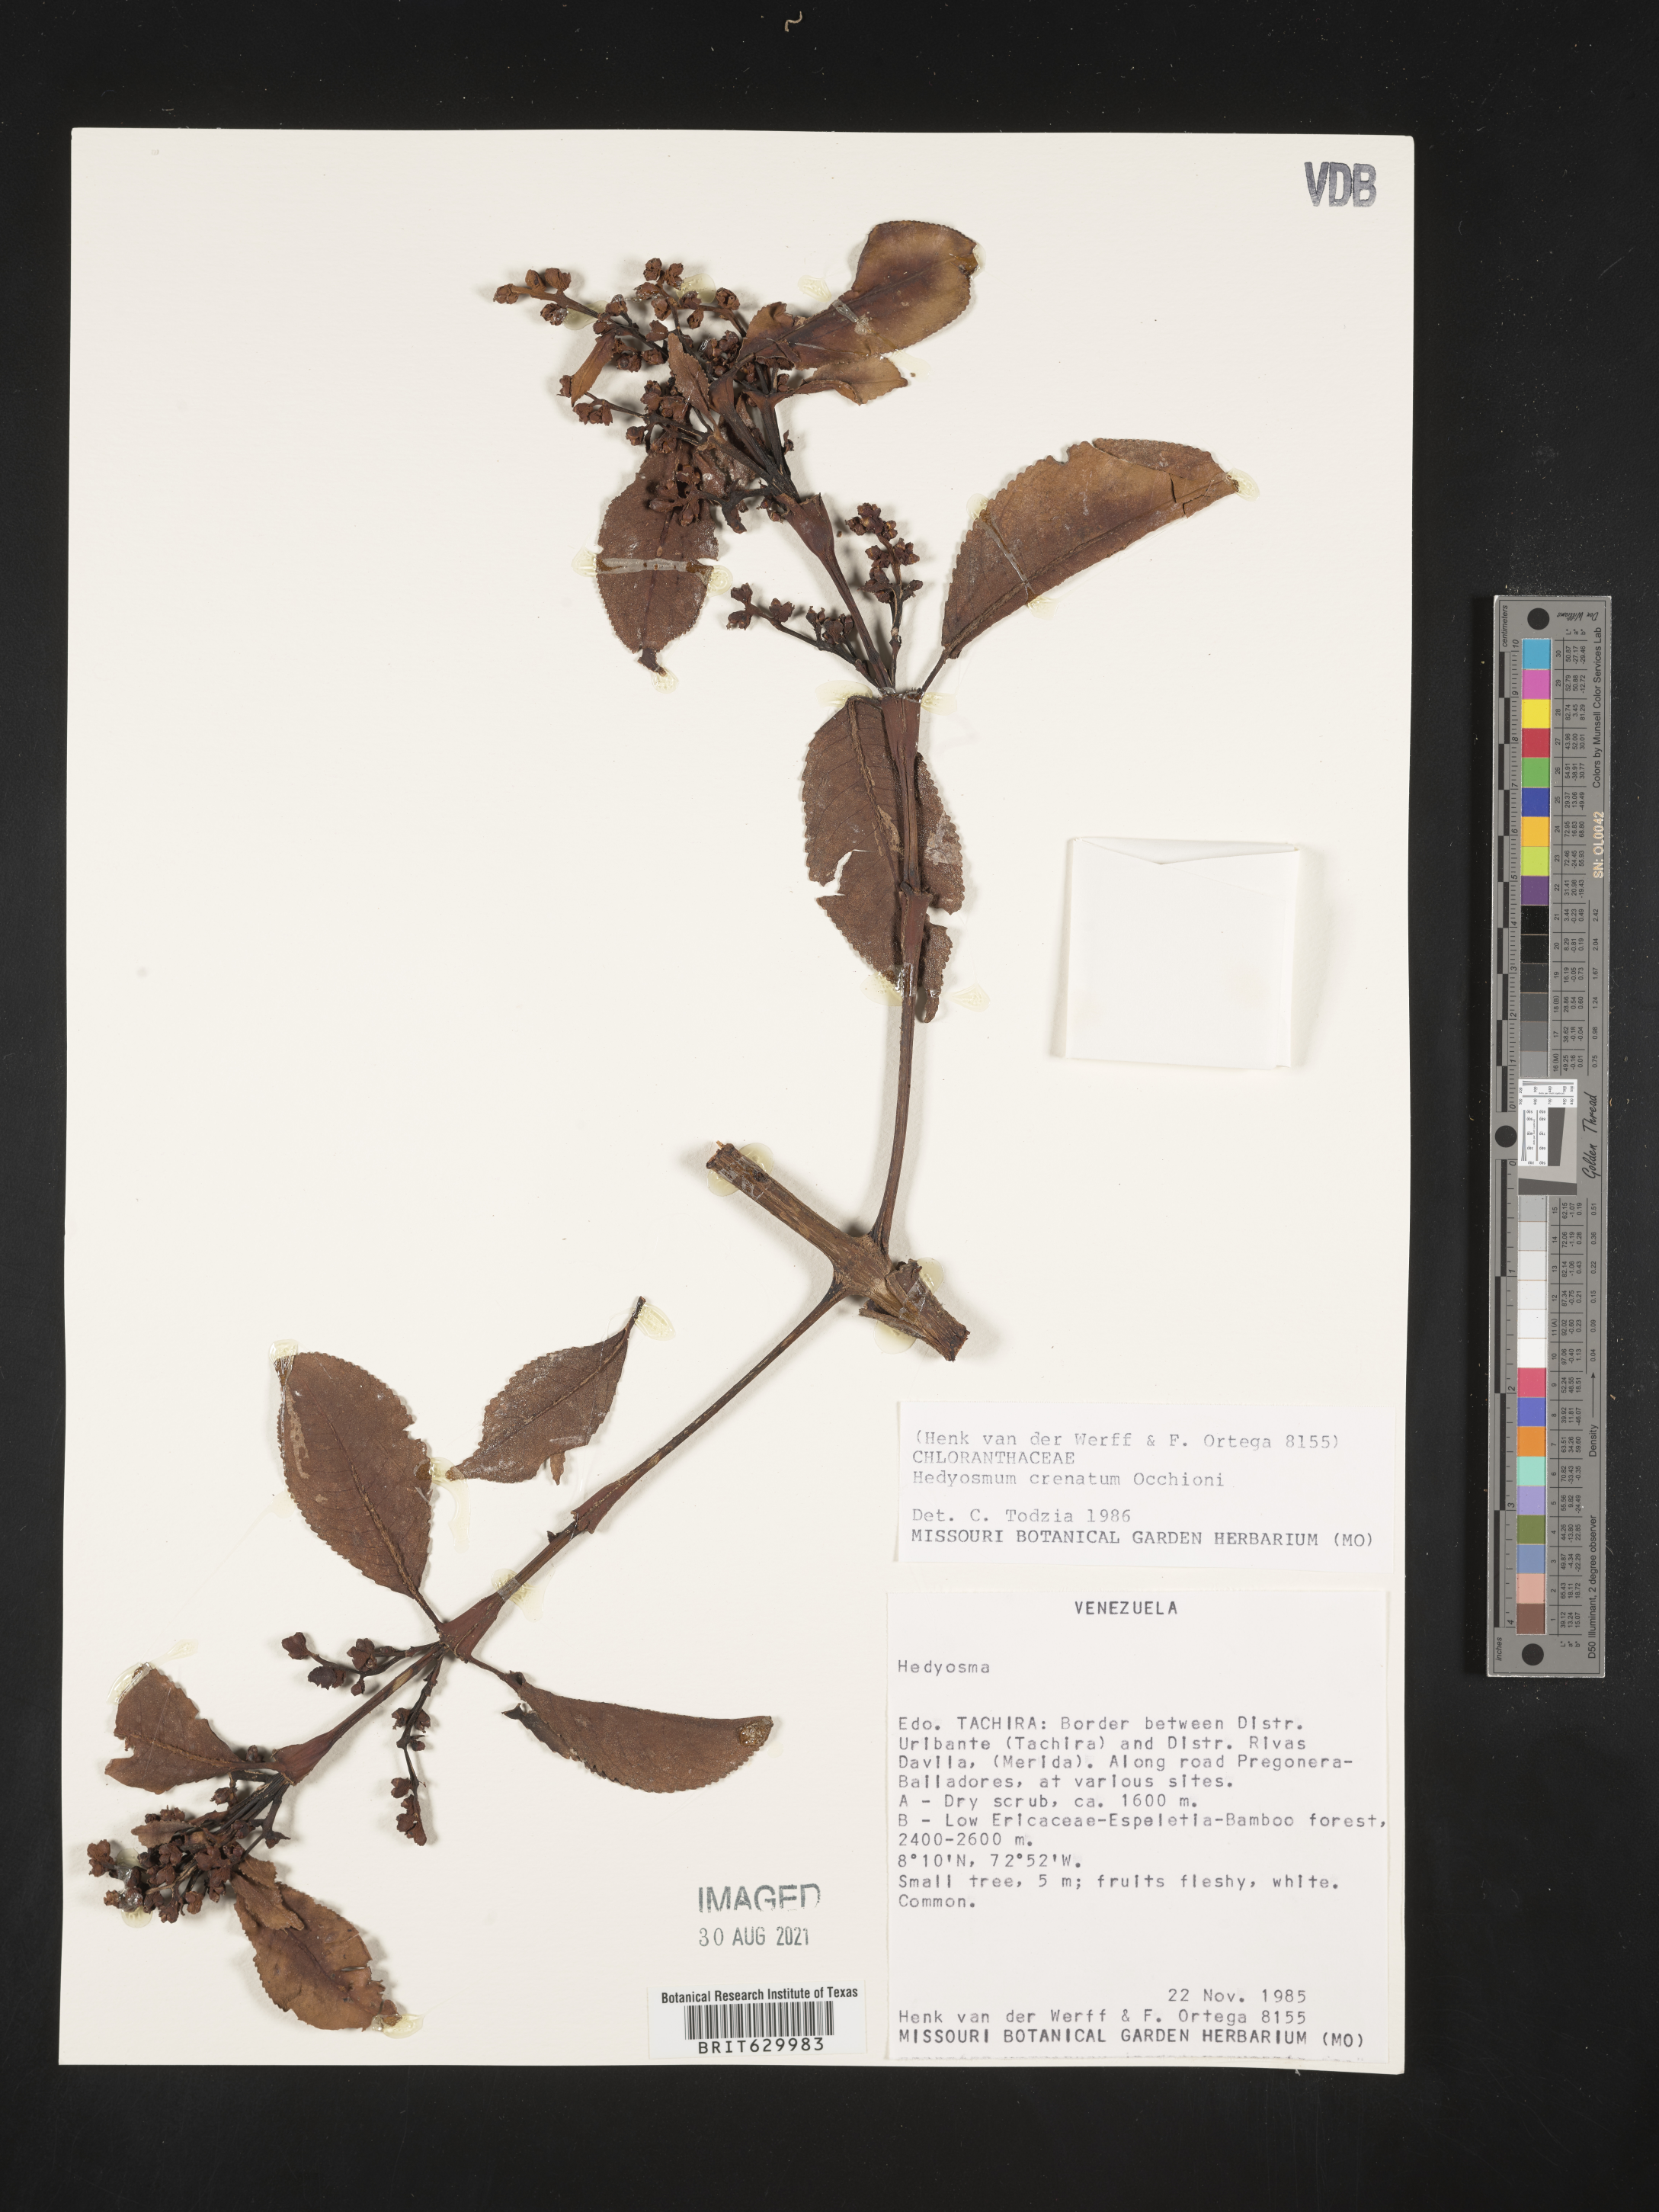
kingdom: Plantae
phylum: Tracheophyta
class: Magnoliopsida
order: Chloranthales
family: Chloranthaceae
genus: Hedyosmum
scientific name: Hedyosmum crenatum
